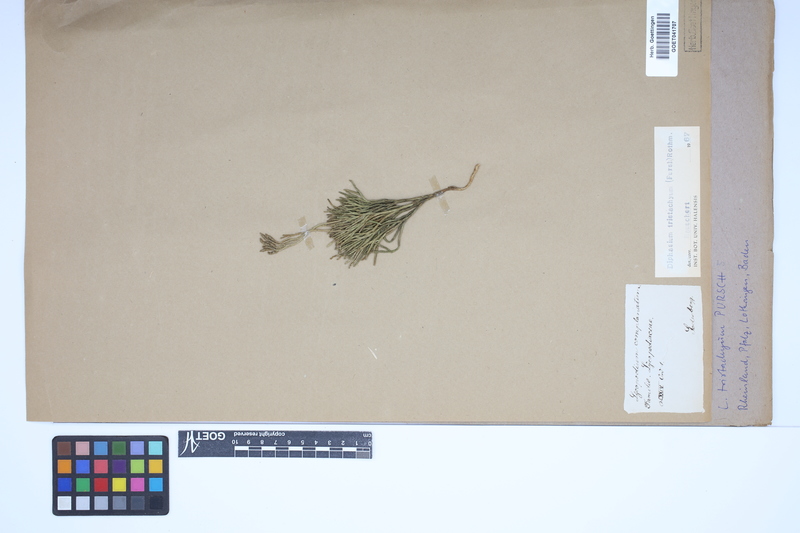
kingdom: Plantae
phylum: Tracheophyta
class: Lycopodiopsida
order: Lycopodiales
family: Lycopodiaceae
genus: Diphasiastrum
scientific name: Diphasiastrum tristachyum
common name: Blue ground-cedar
